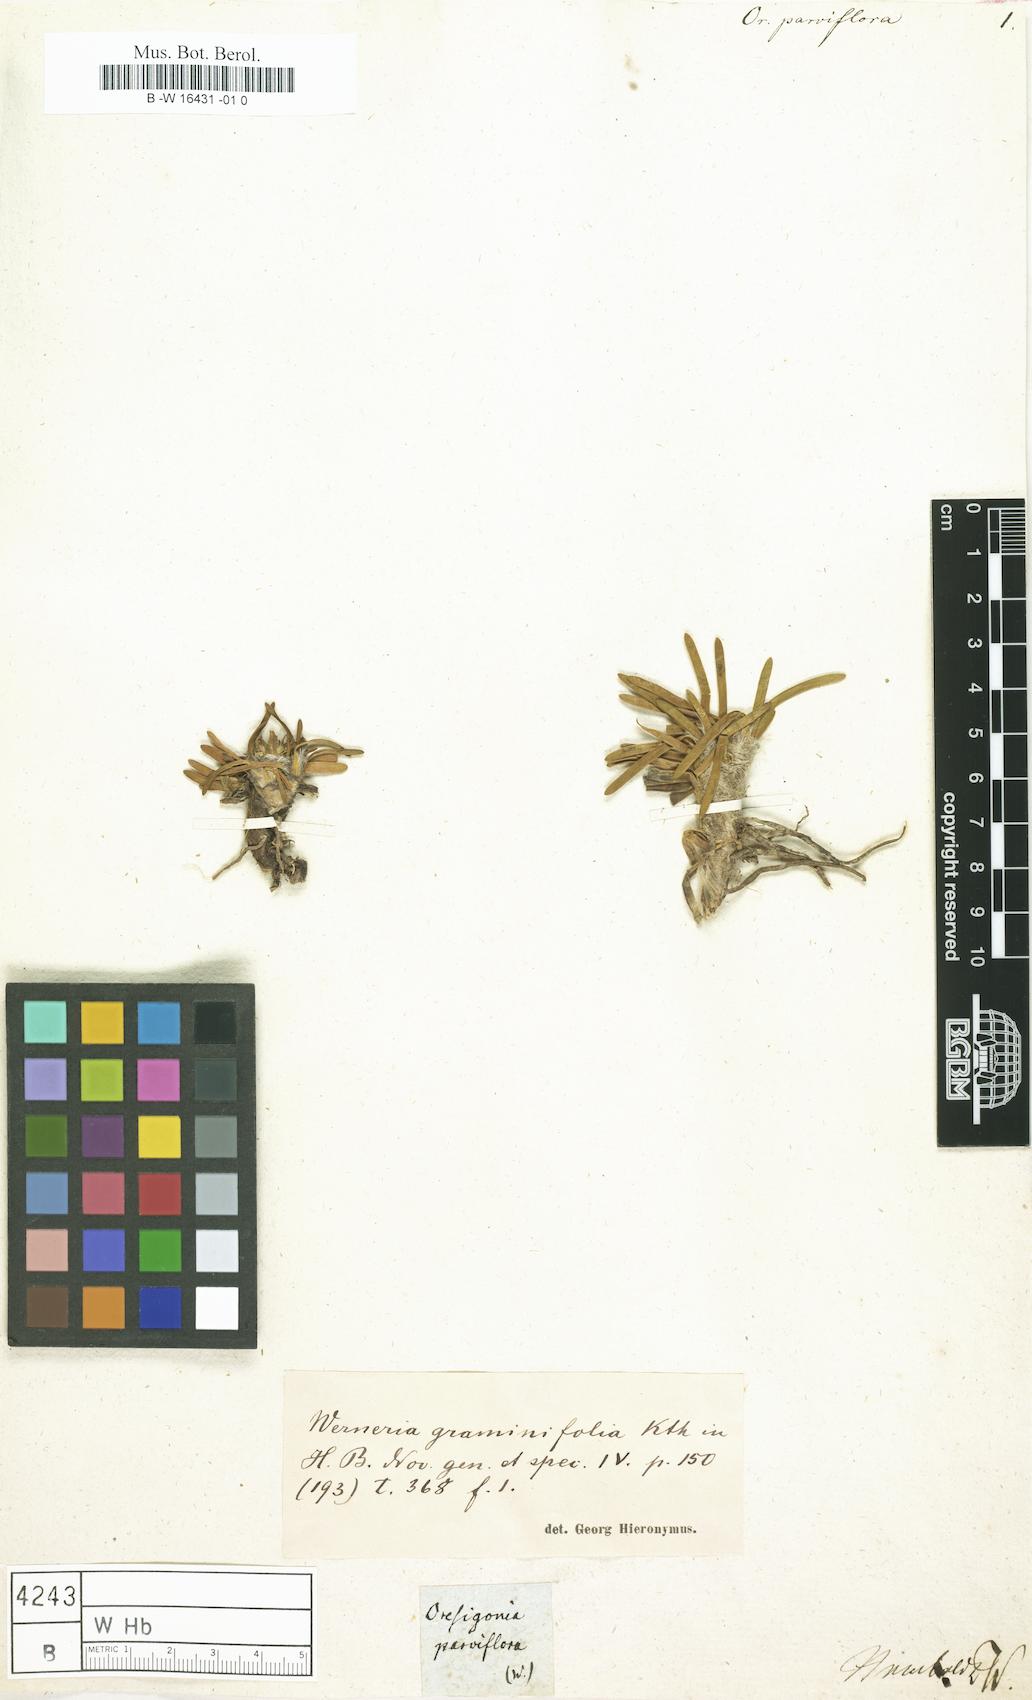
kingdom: Plantae
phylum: Tracheophyta
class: Magnoliopsida
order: Asterales
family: Asteraceae
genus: Rockhausenia
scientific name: Rockhausenia graminifolia
